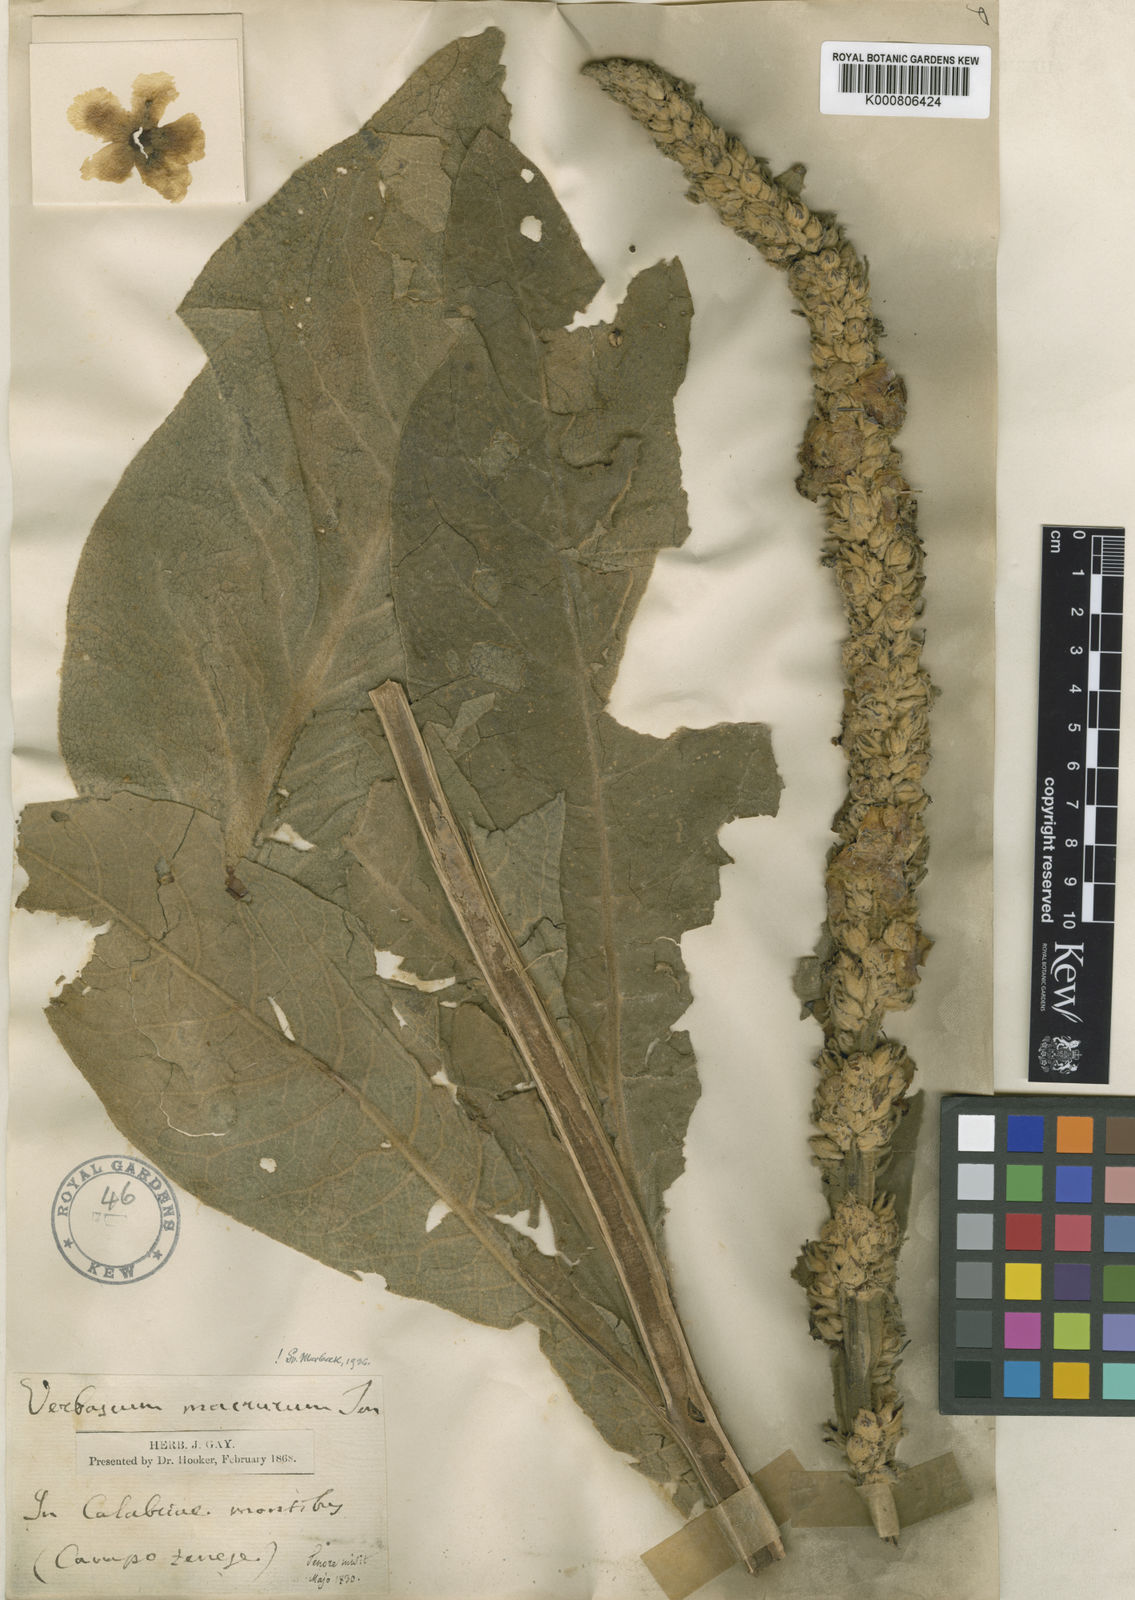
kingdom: Plantae
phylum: Tracheophyta
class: Magnoliopsida
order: Lamiales
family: Scrophulariaceae
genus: Verbascum
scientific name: Verbascum macrurum
